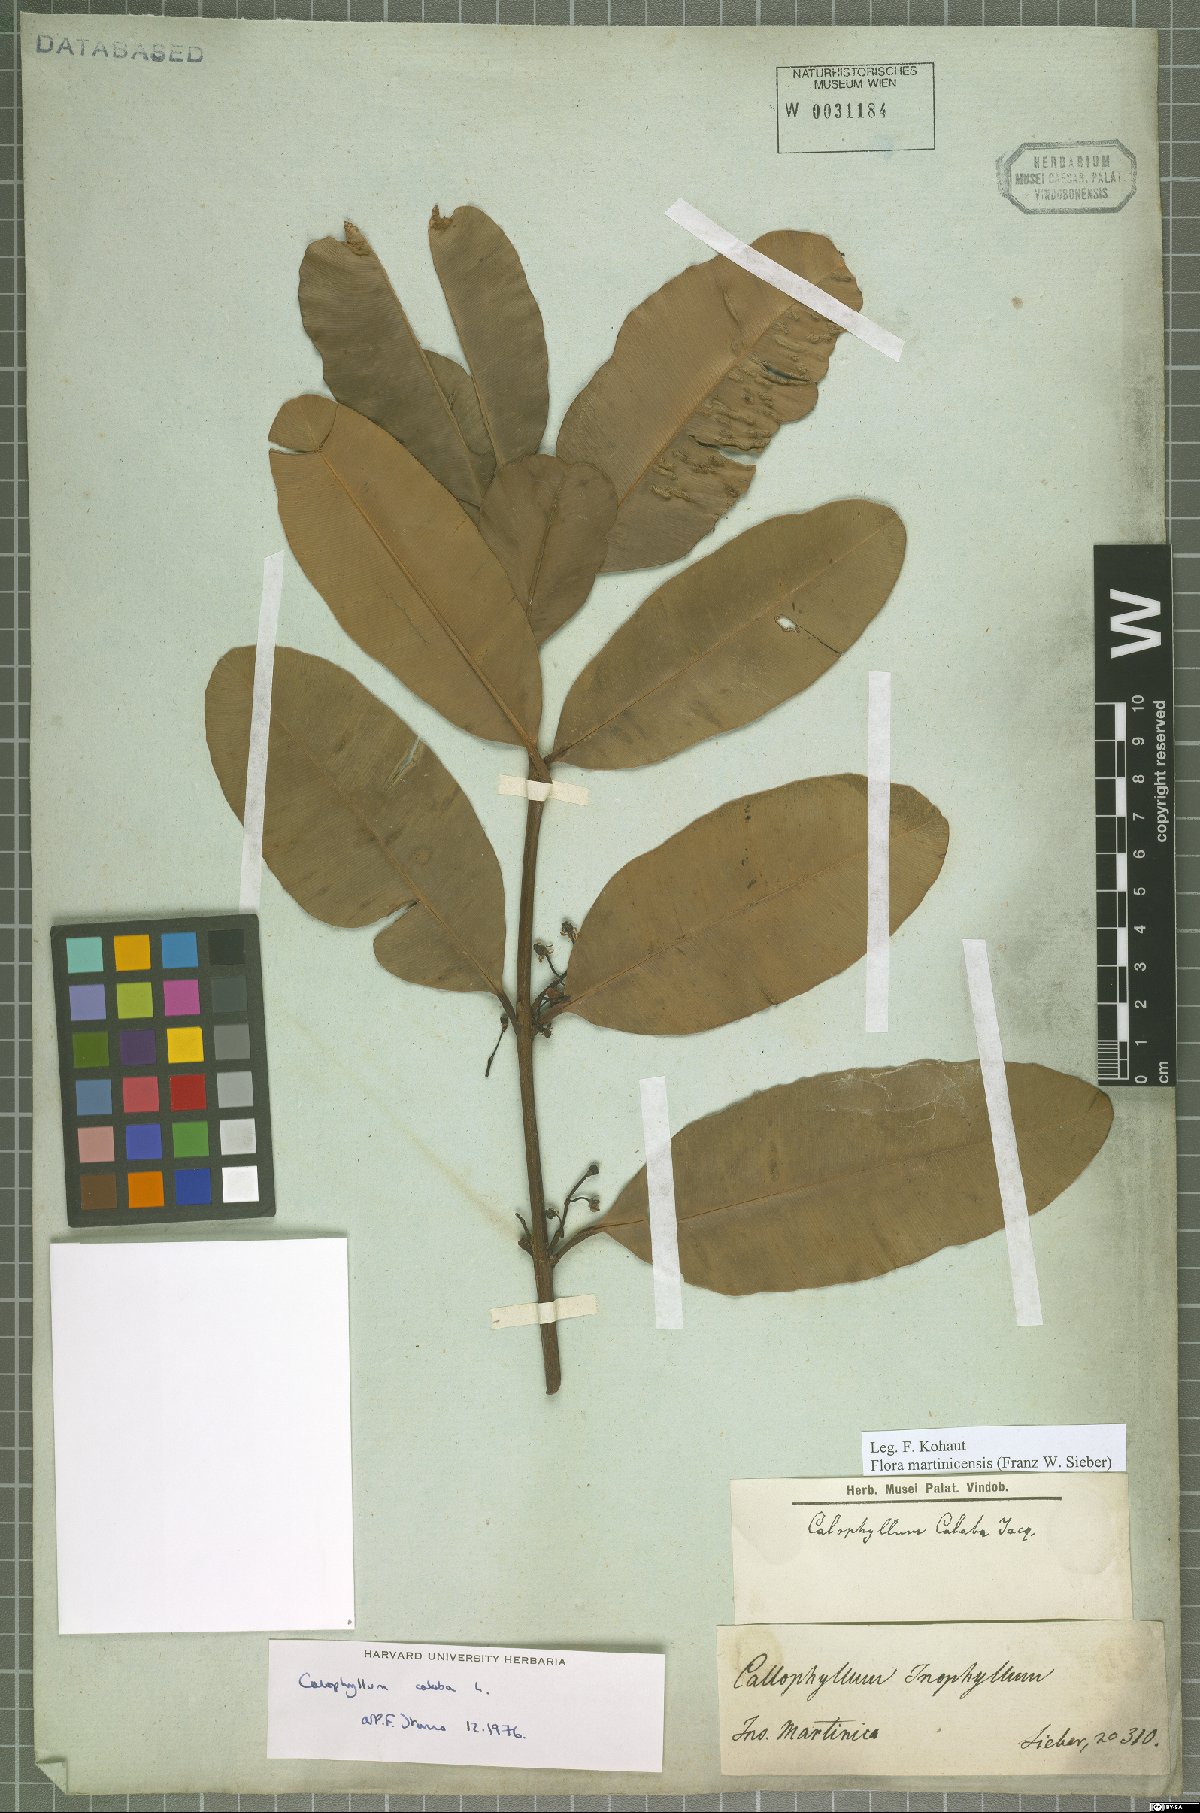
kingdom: Plantae
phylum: Tracheophyta
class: Magnoliopsida
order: Malpighiales
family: Calophyllaceae
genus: Calophyllum
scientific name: Calophyllum calaba
